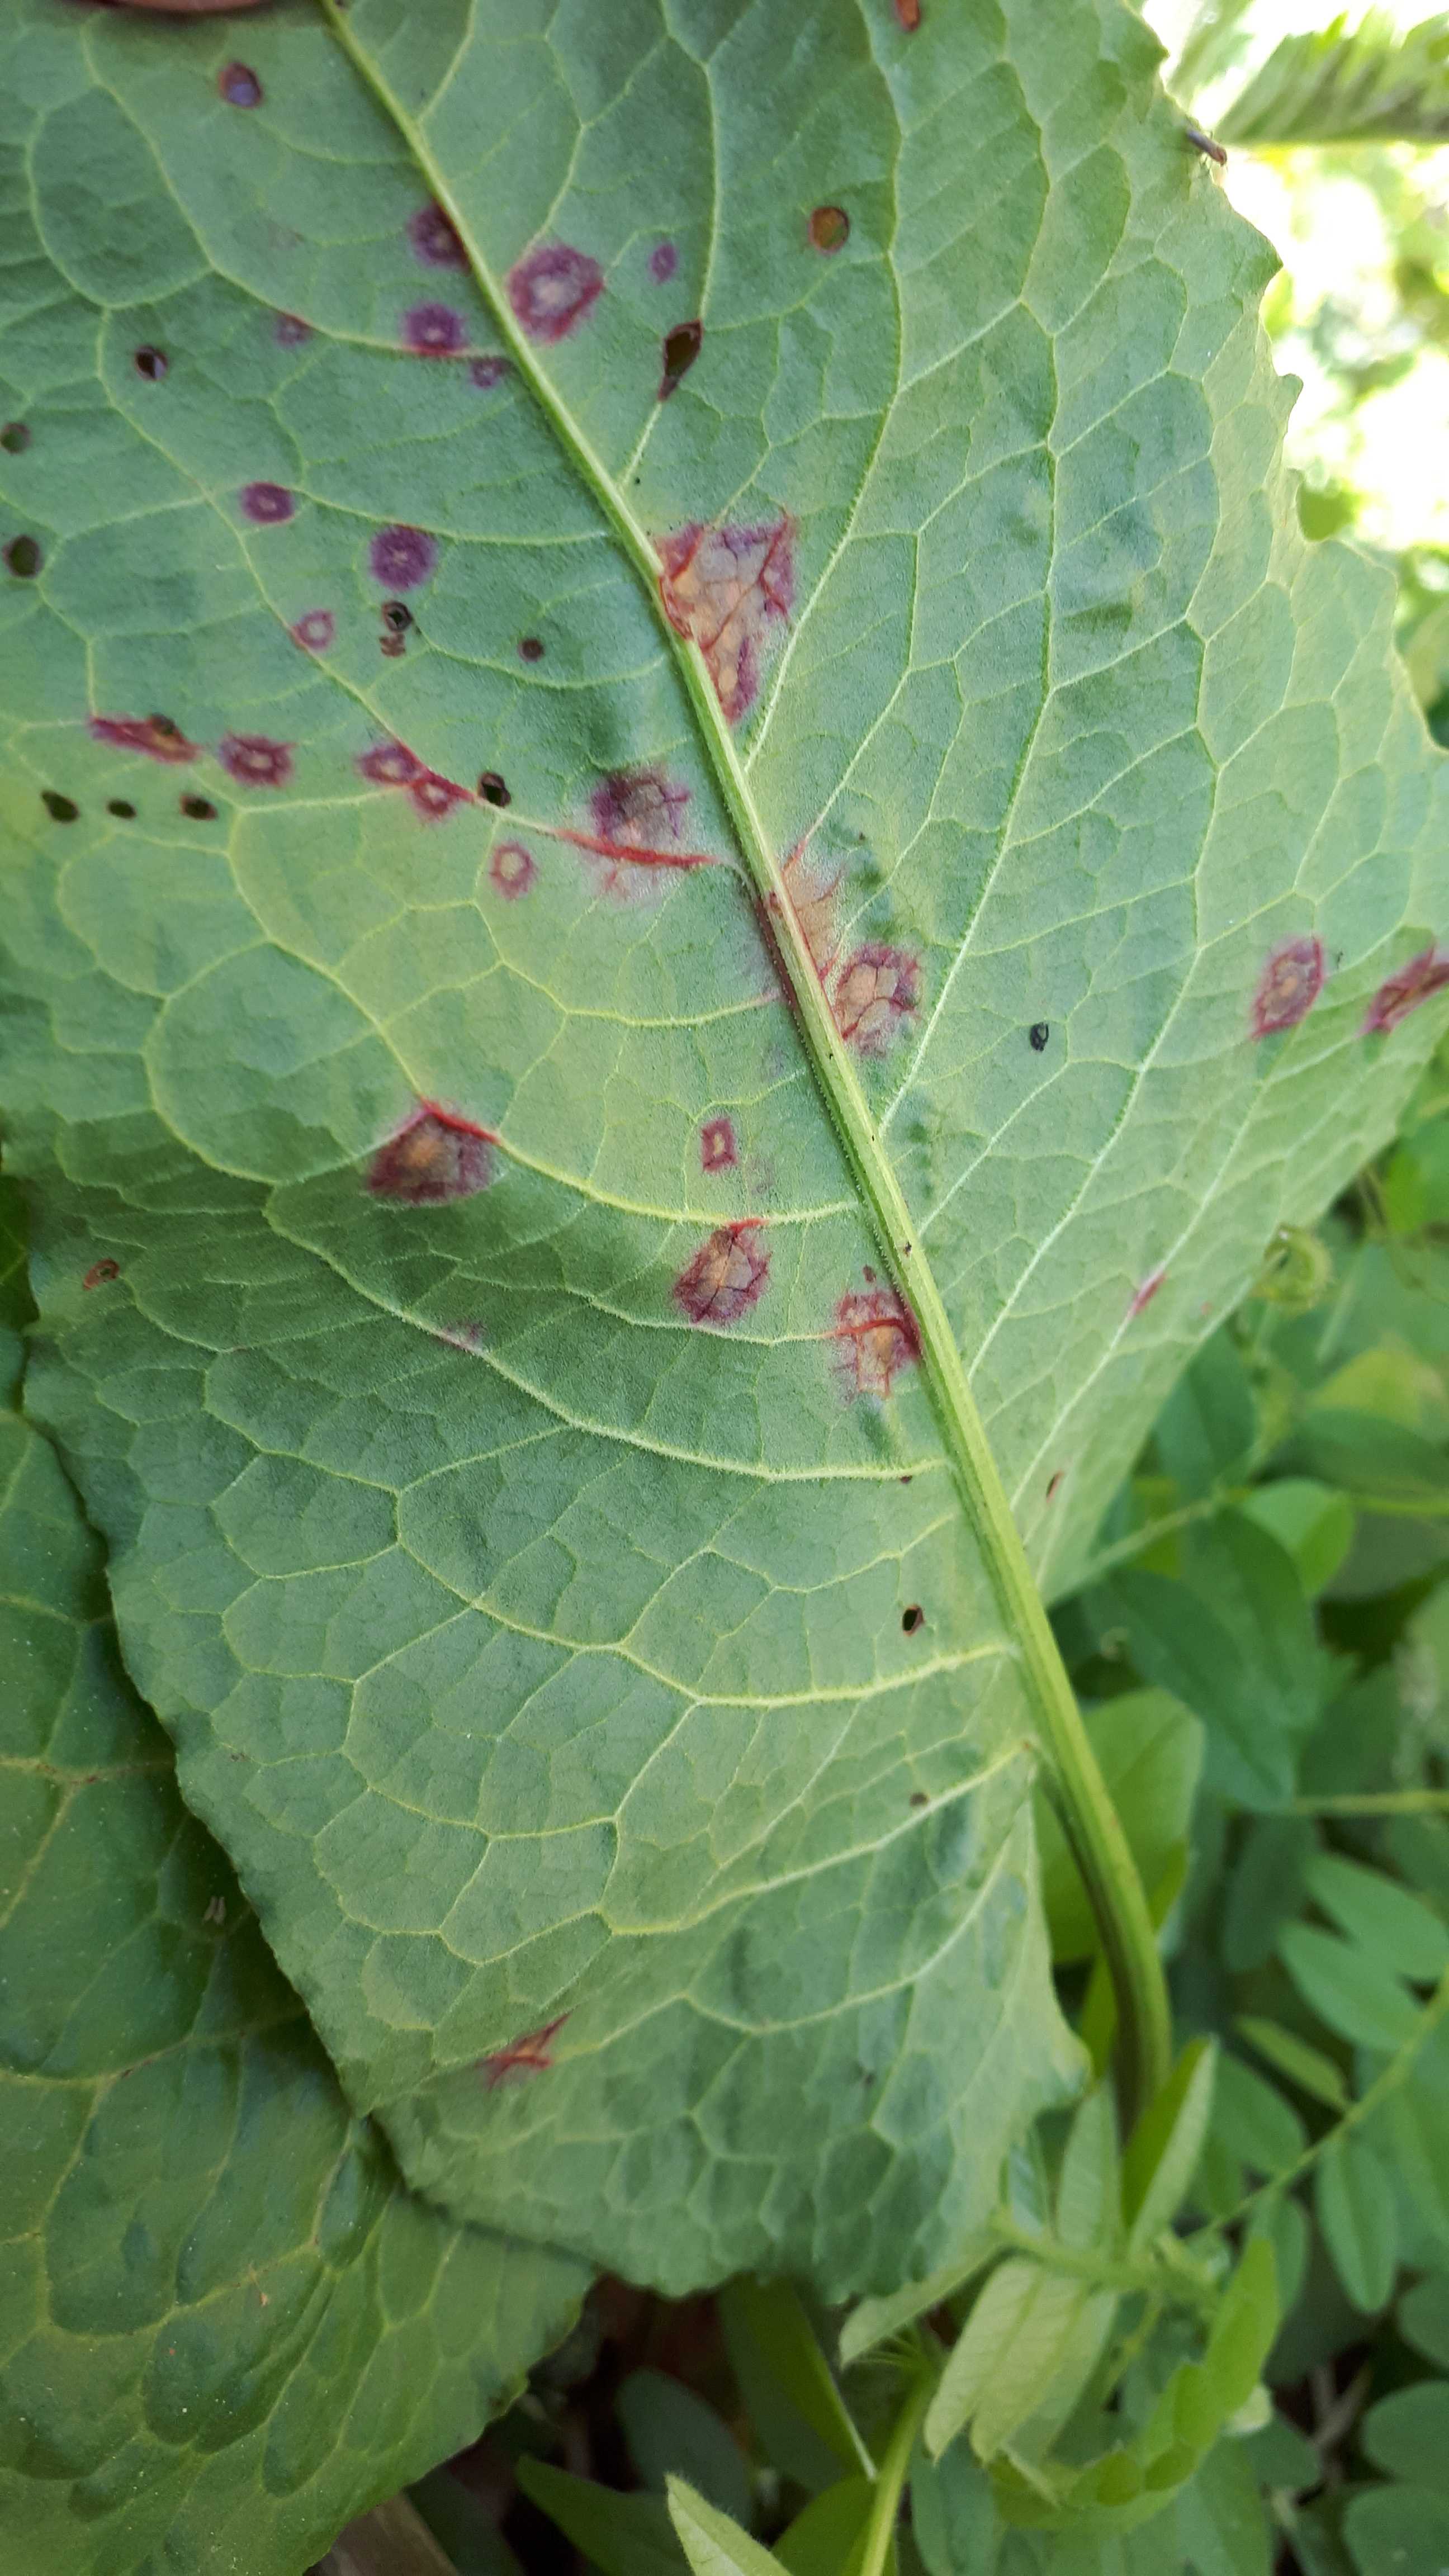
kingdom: Fungi
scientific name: Fungi
